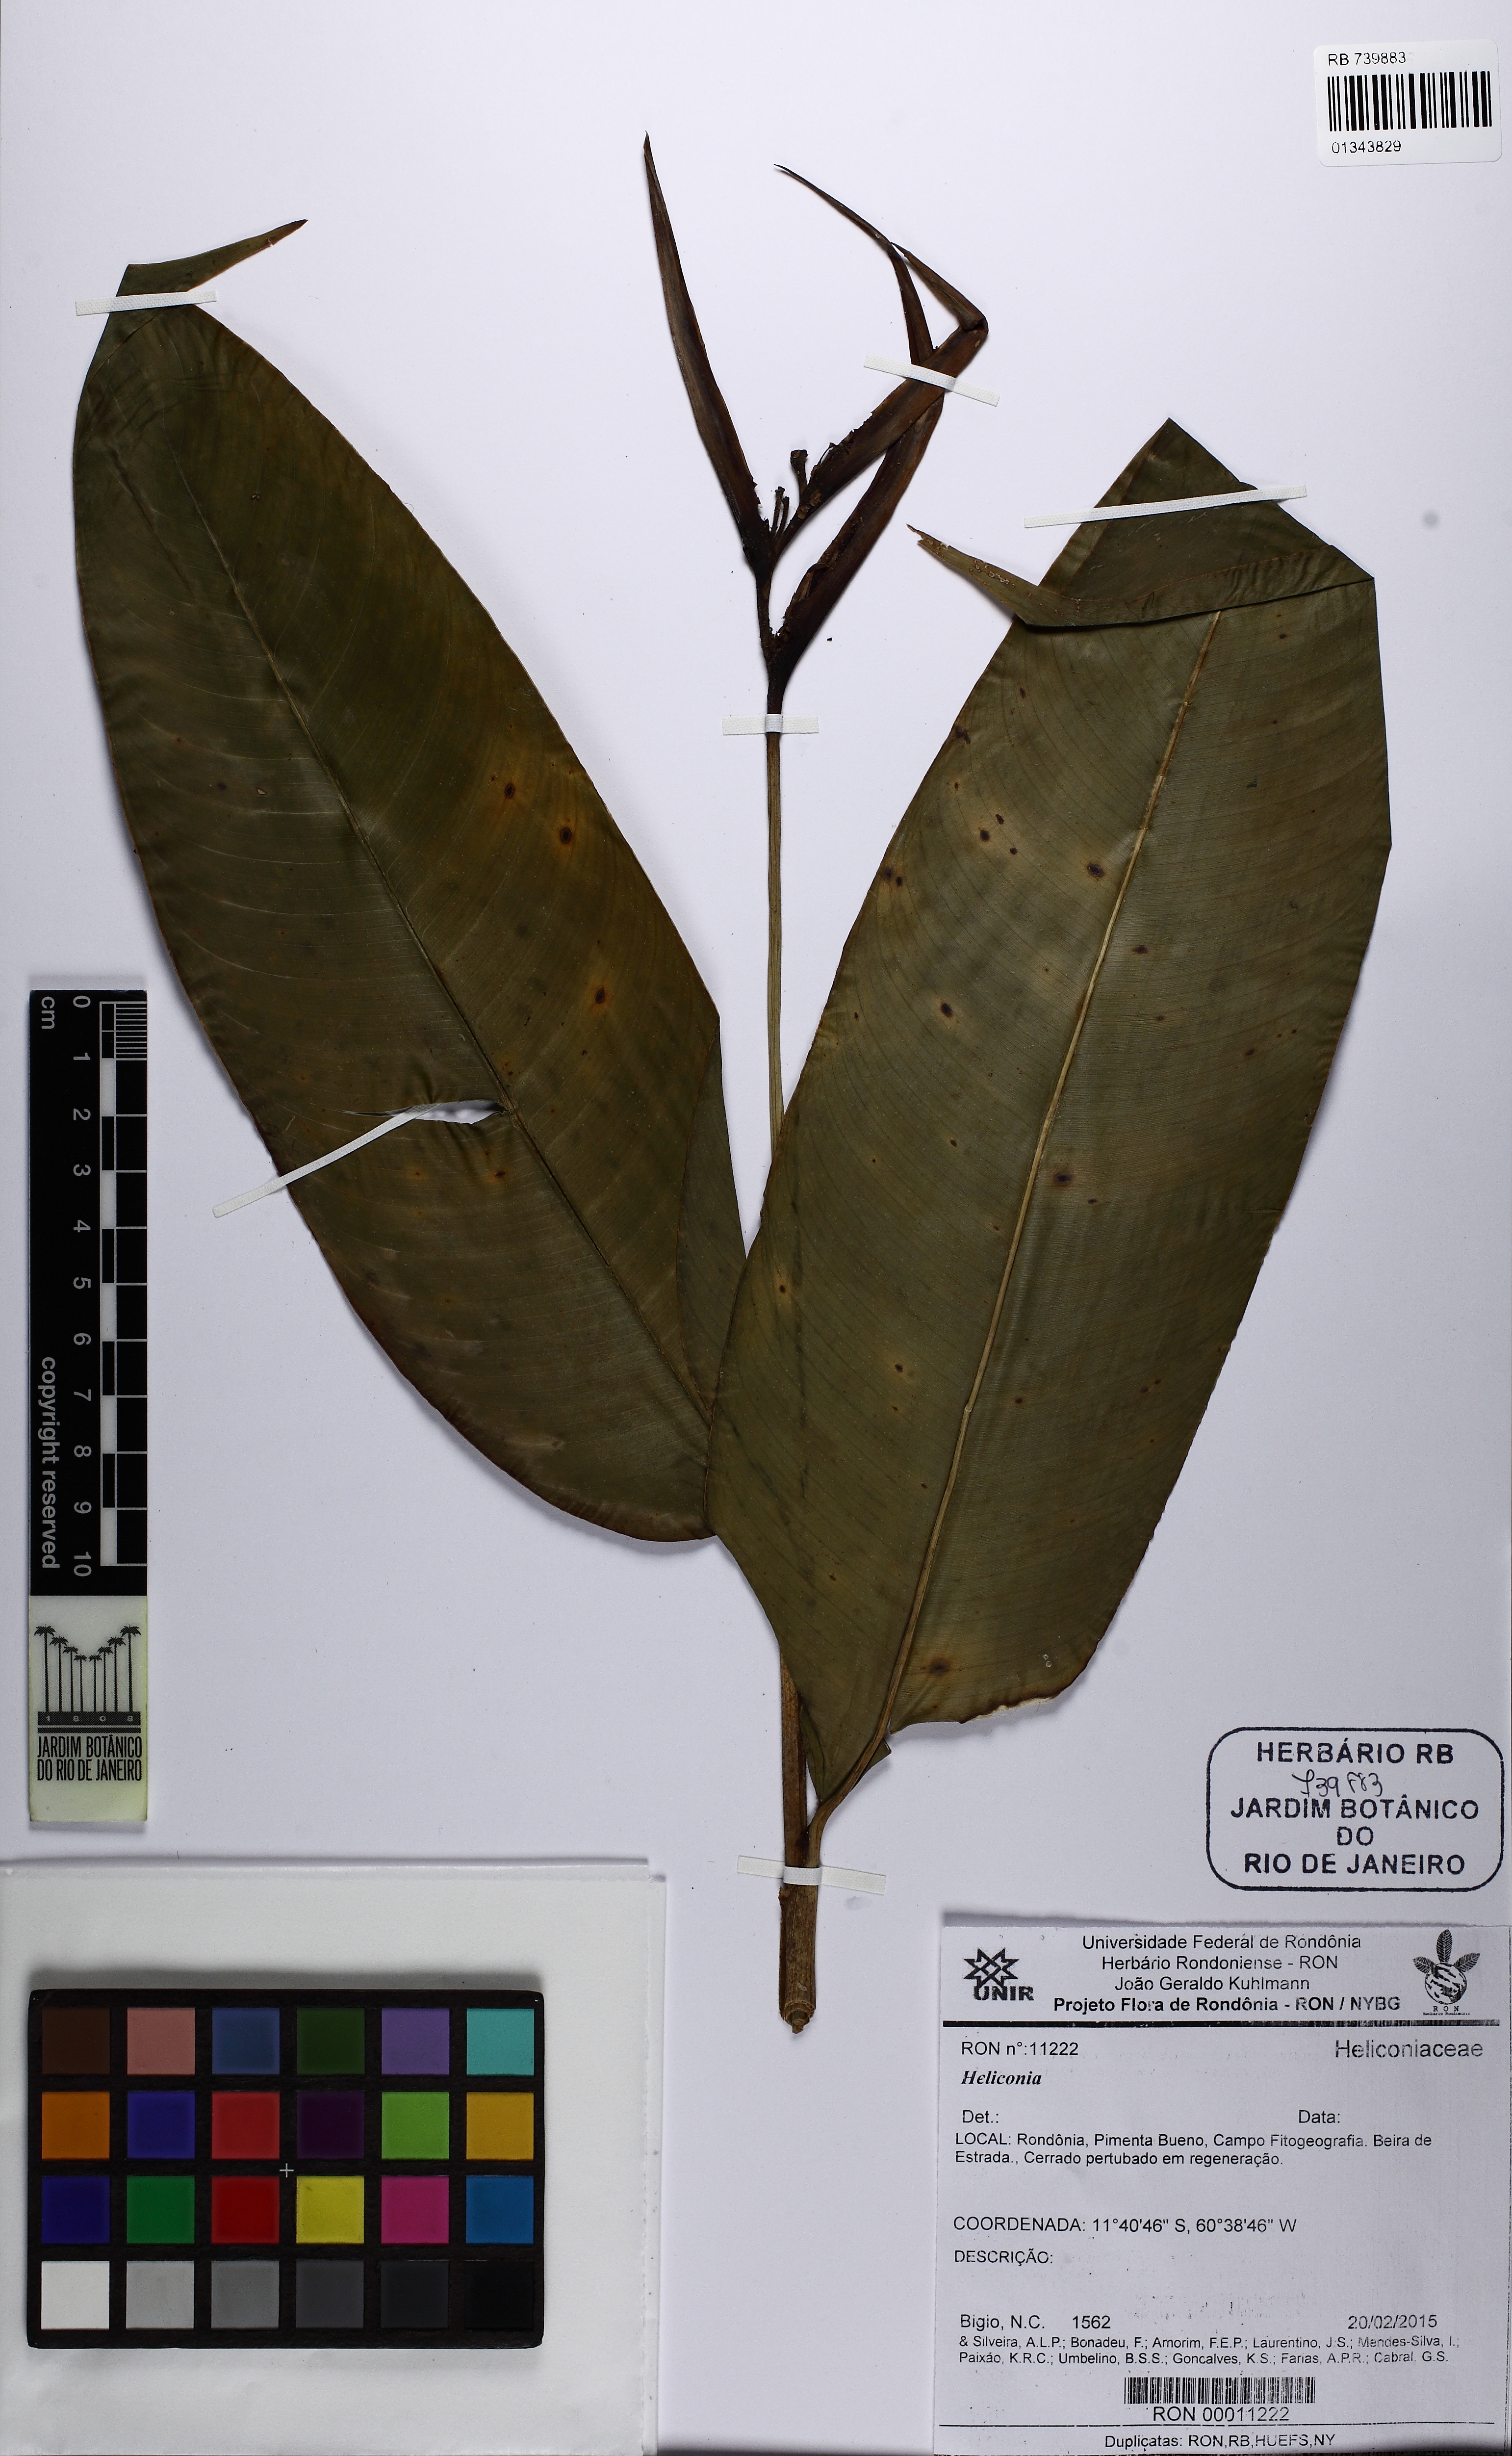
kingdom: Plantae
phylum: Tracheophyta
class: Liliopsida
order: Zingiberales
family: Heliconiaceae
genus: Heliconia
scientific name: Heliconia
